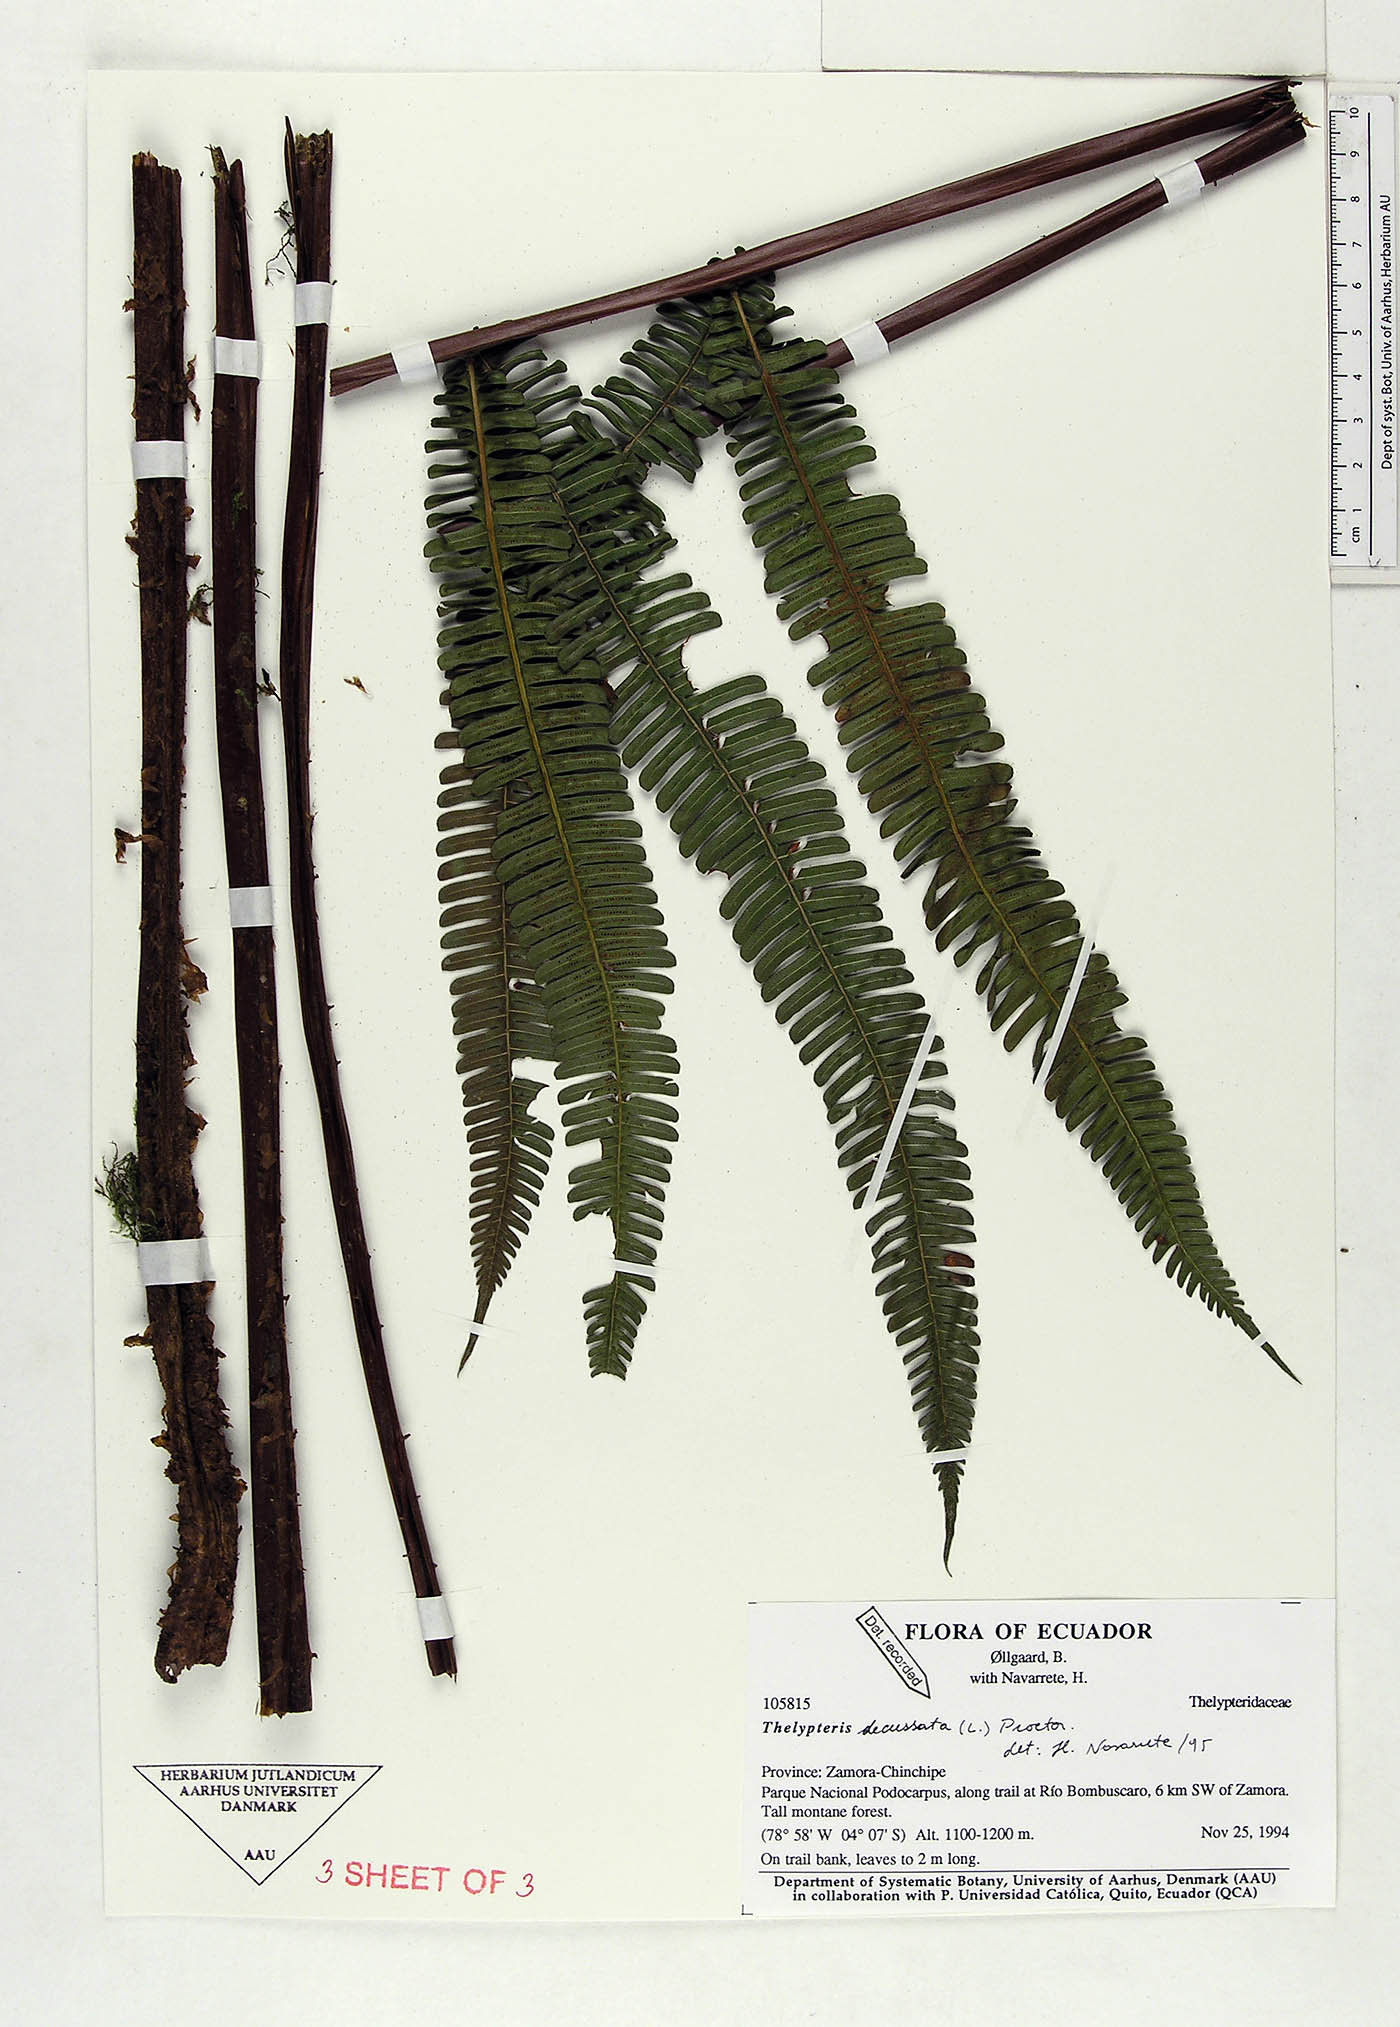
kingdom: Plantae
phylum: Tracheophyta
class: Polypodiopsida
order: Polypodiales
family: Thelypteridaceae
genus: Steiropteris
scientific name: Steiropteris decussata
